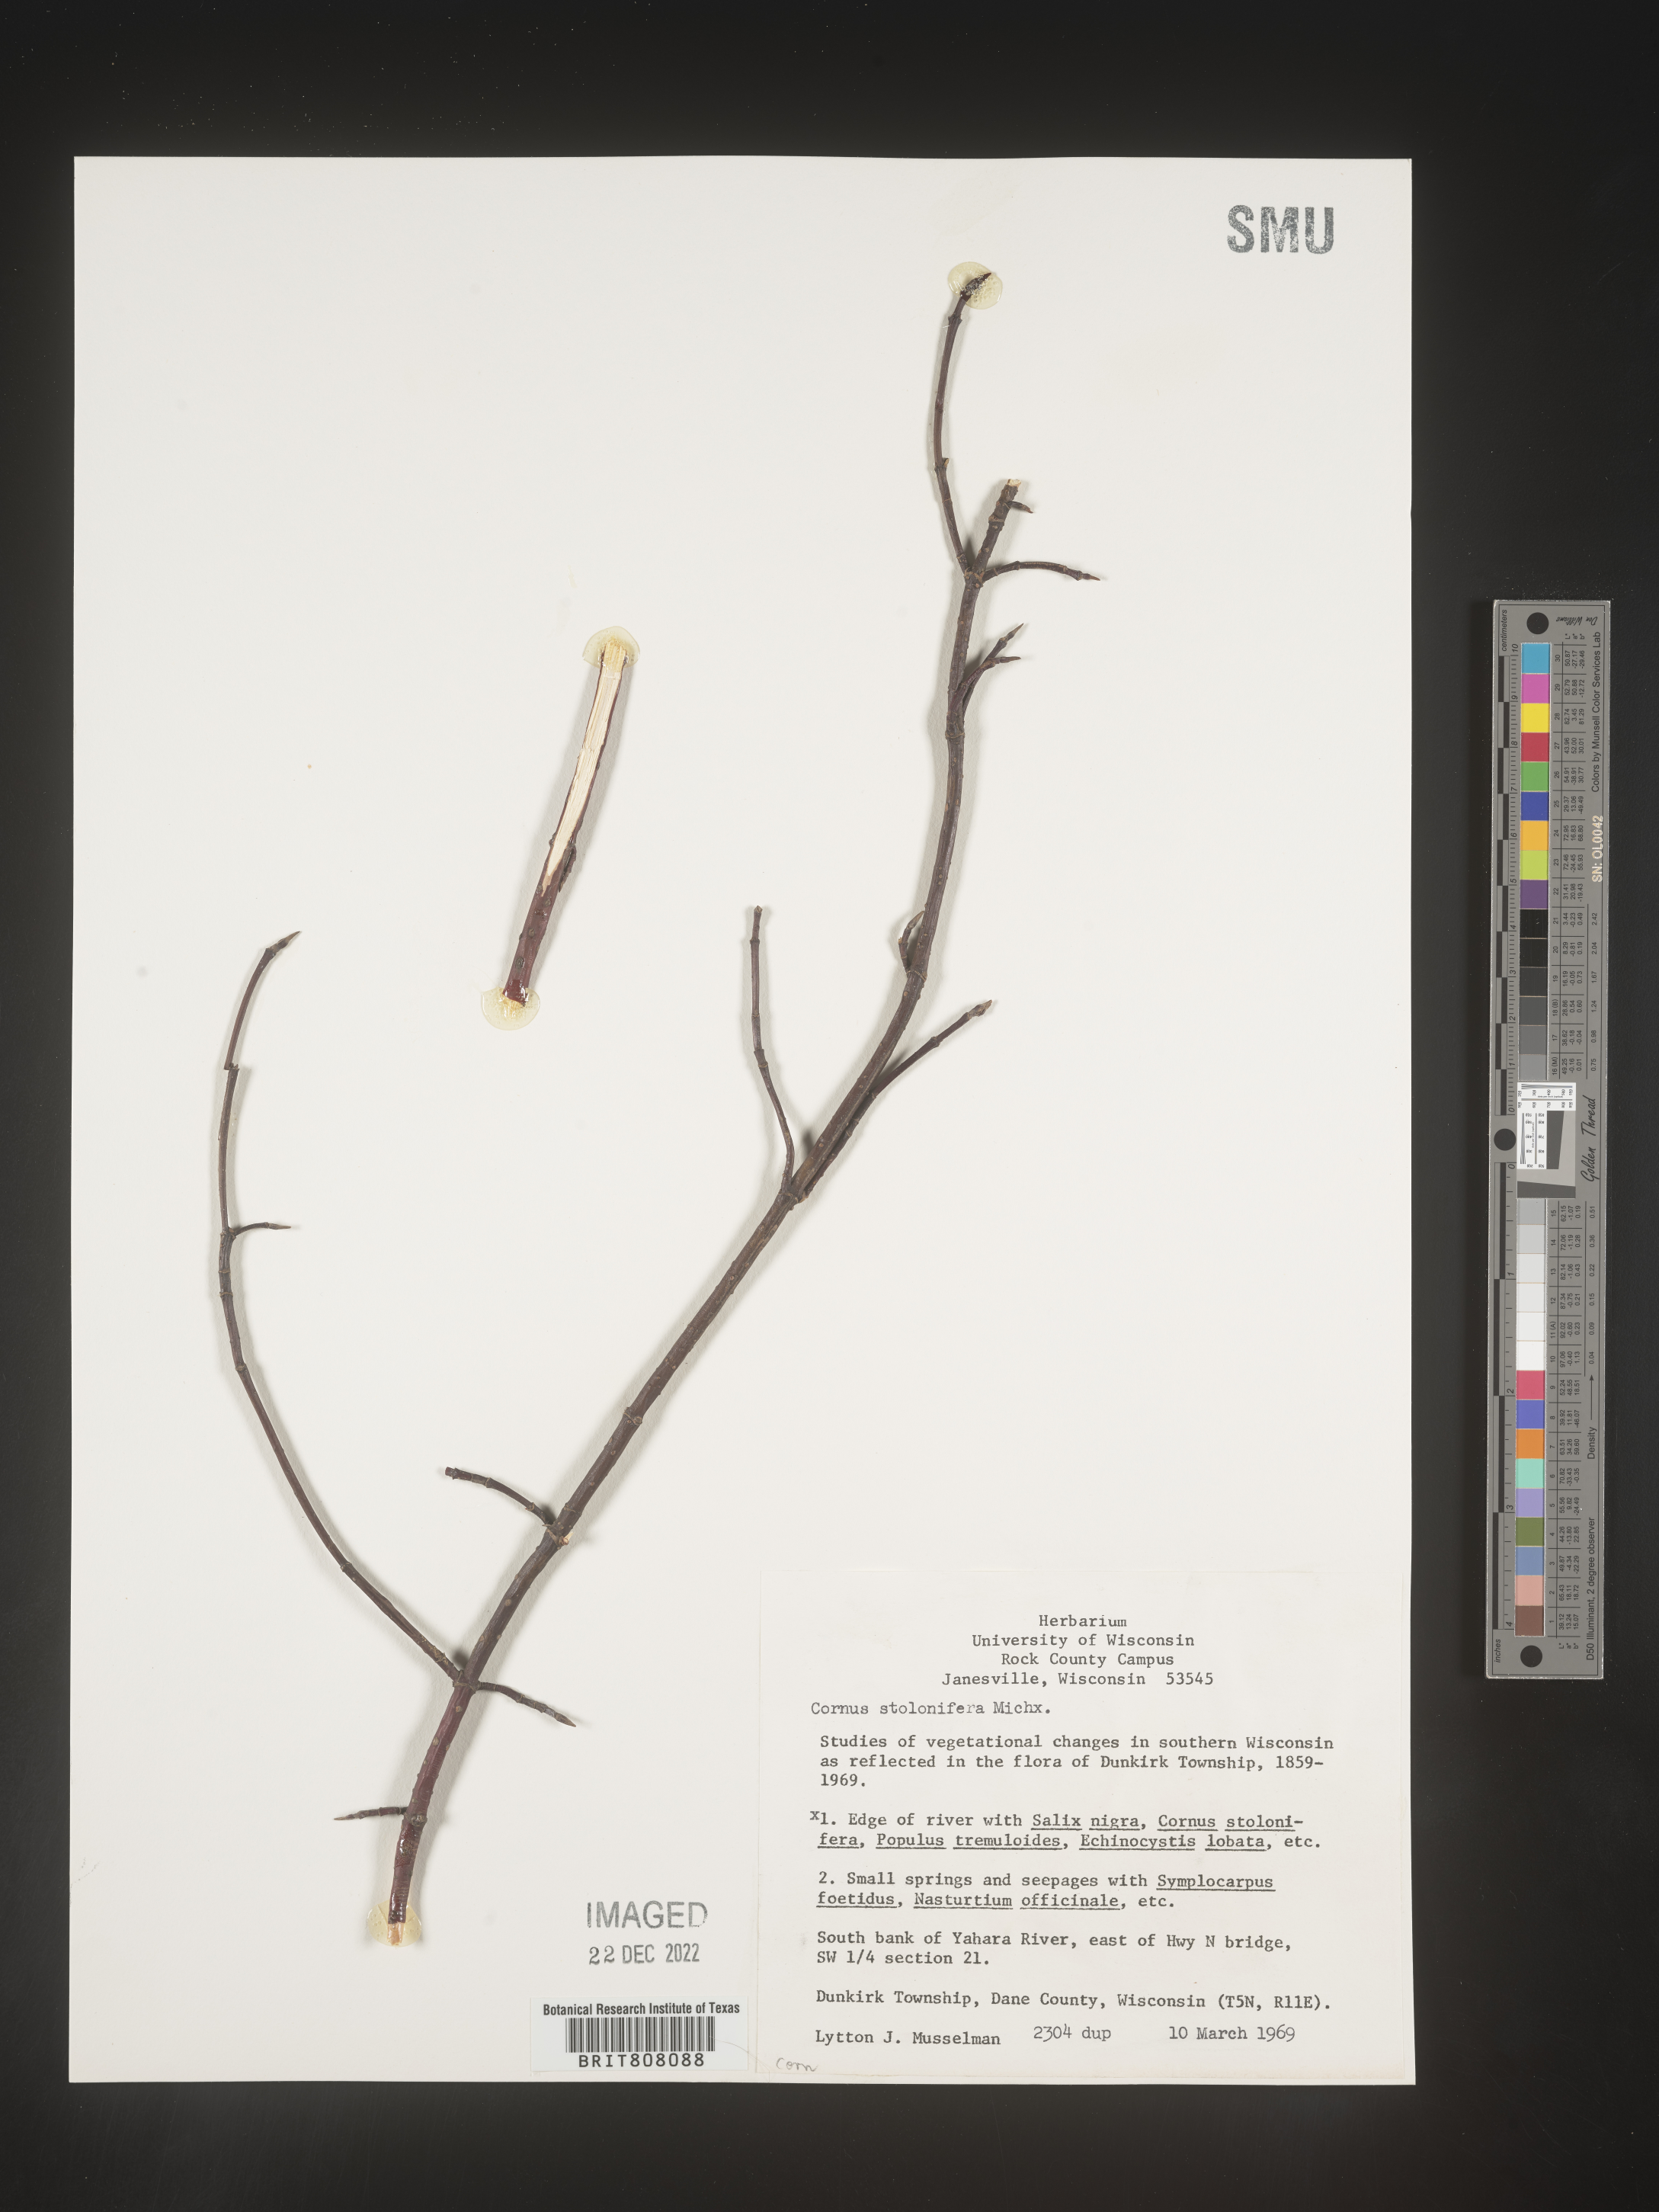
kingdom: Plantae
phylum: Tracheophyta
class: Magnoliopsida
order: Cornales
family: Cornaceae
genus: Cornus
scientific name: Cornus sericea
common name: Red-osier dogwood
